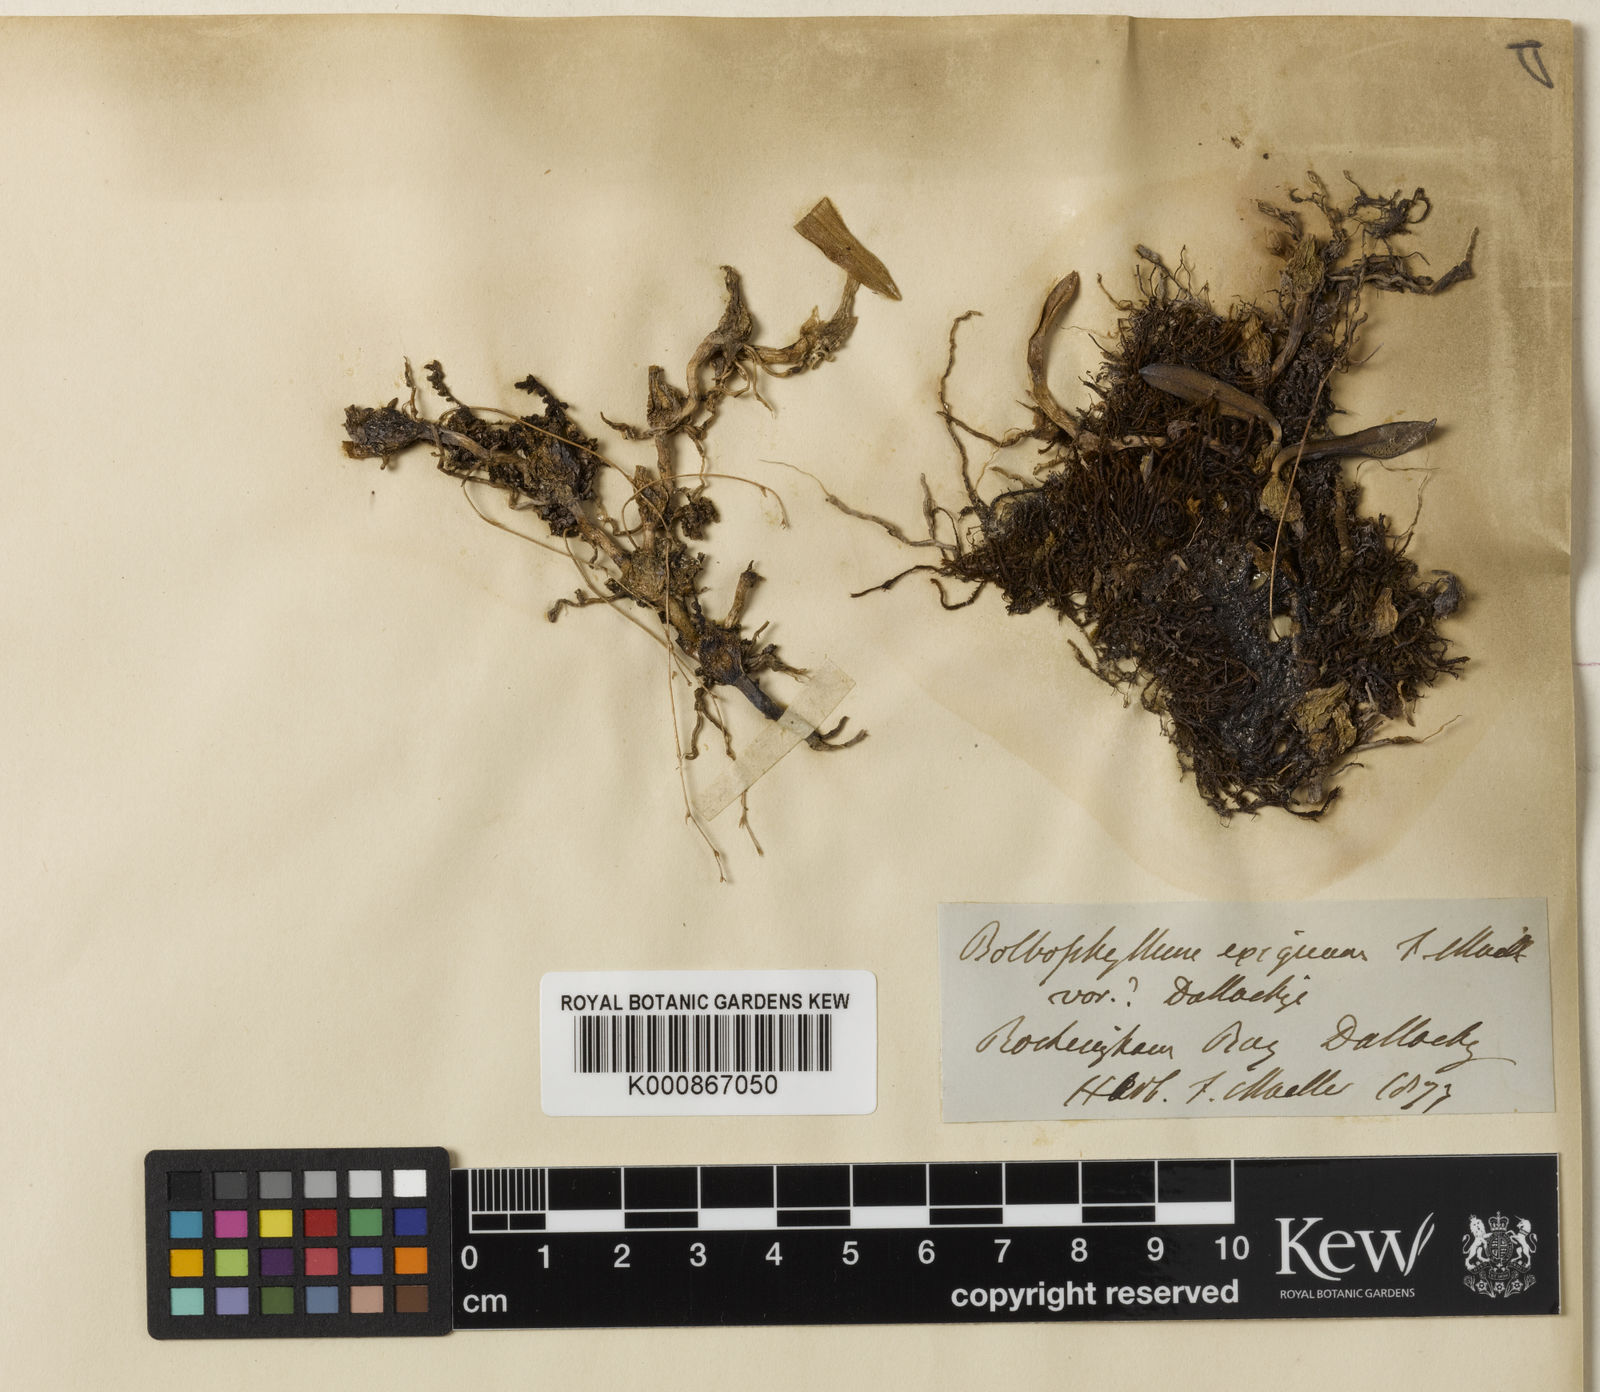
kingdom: Plantae
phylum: Tracheophyta
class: Liliopsida
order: Asparagales
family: Orchidaceae
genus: Bulbophyllum
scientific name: Bulbophyllum newportii
